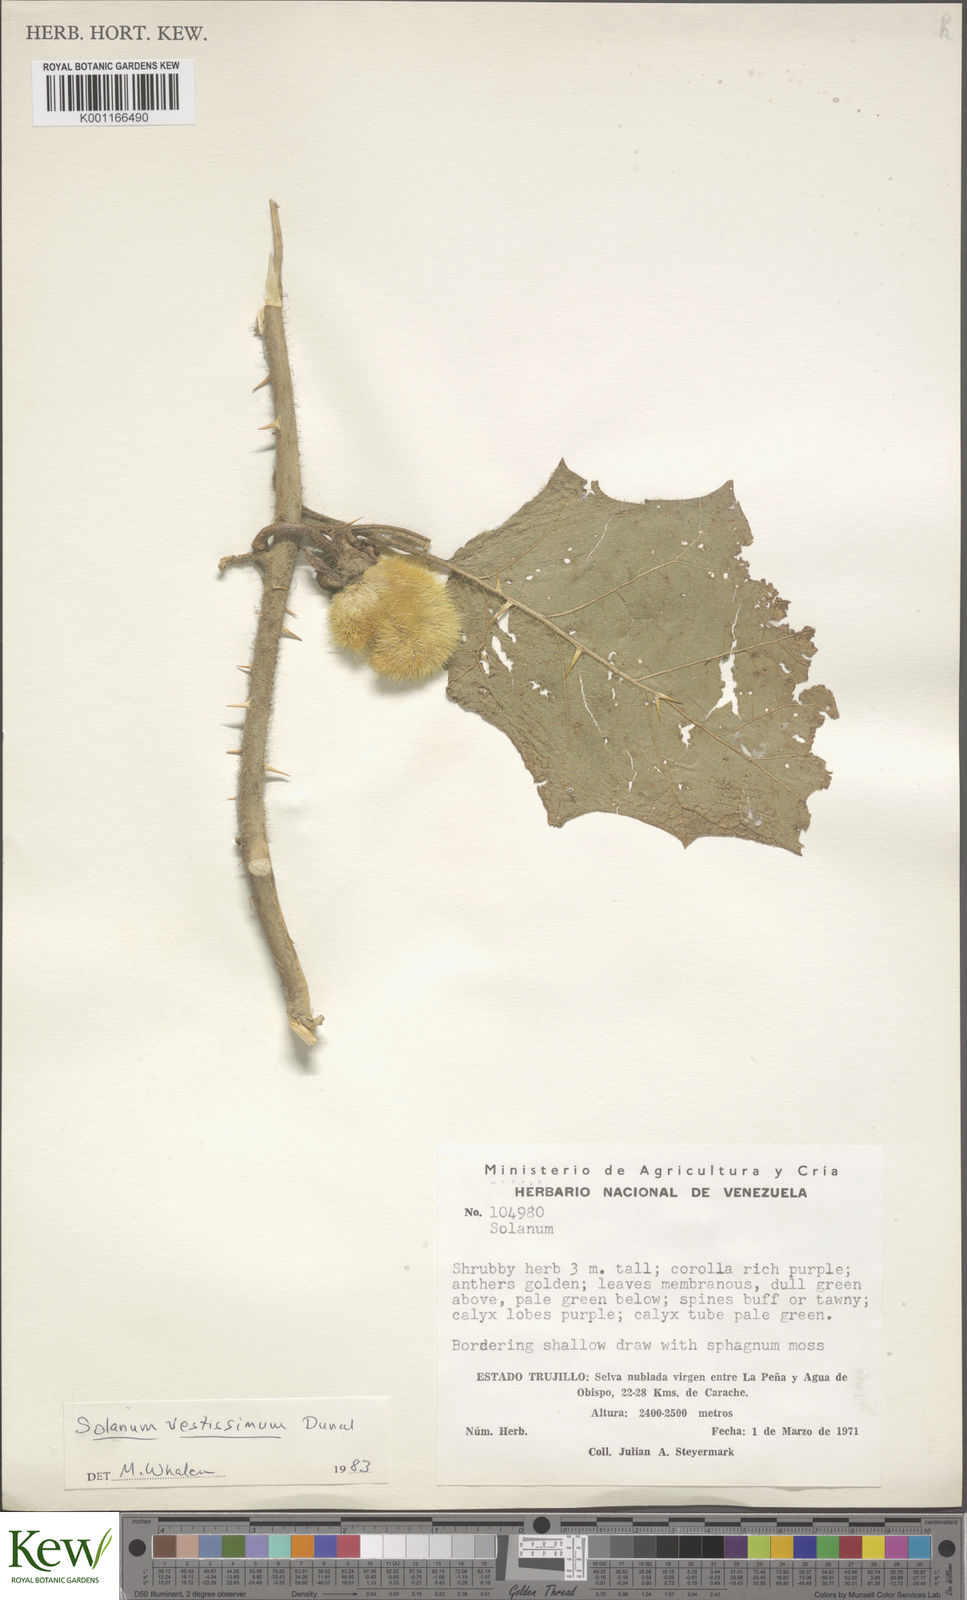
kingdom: Plantae
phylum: Tracheophyta
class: Magnoliopsida
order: Solanales
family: Solanaceae
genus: Solanum
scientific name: Solanum vestissimum
